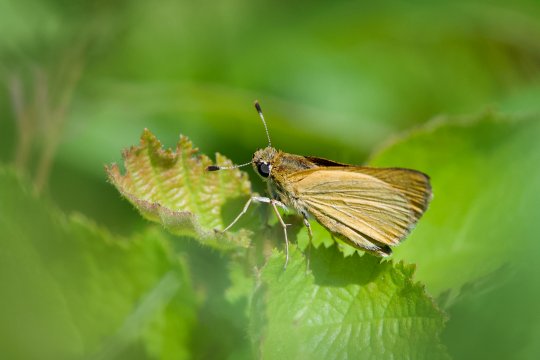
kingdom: Animalia
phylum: Arthropoda
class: Insecta
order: Lepidoptera
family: Hesperiidae
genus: Atrytone
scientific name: Atrytone delaware
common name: Delaware Skipper
